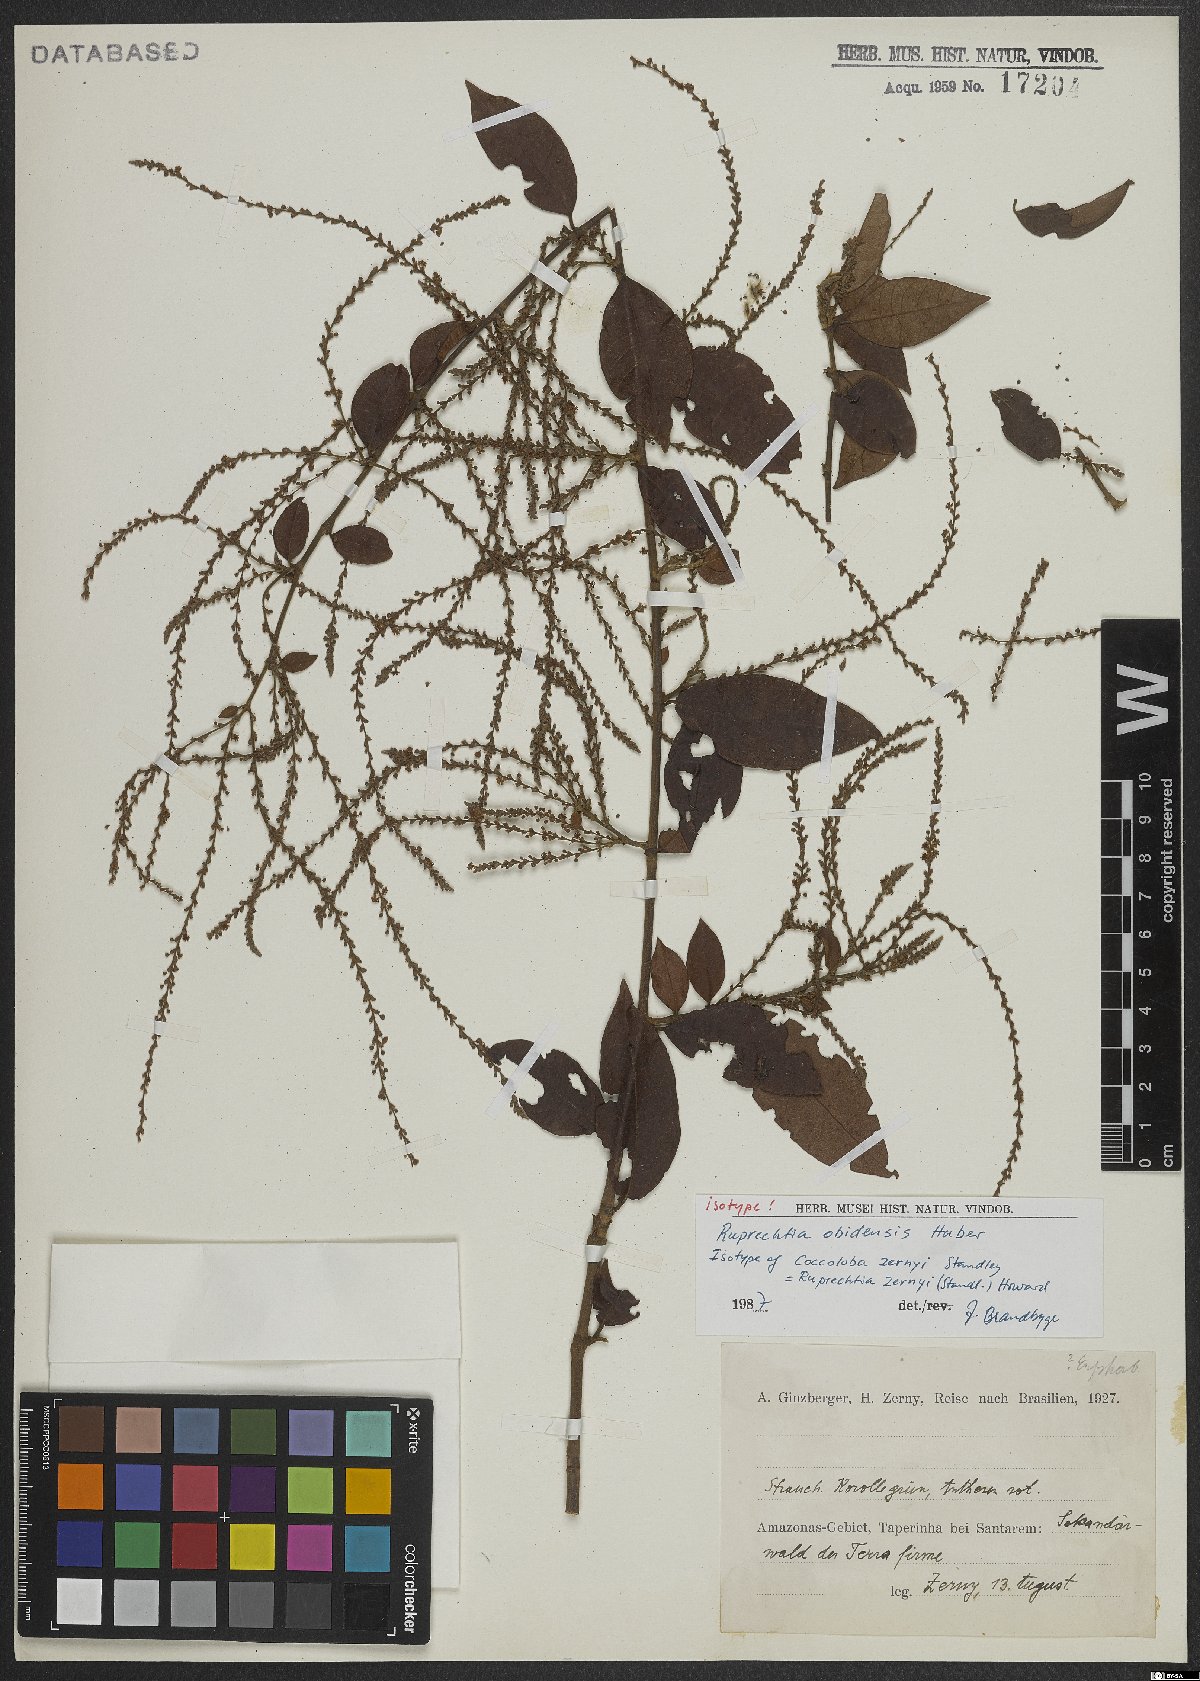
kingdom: Plantae
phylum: Tracheophyta
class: Magnoliopsida
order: Caryophyllales
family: Polygonaceae
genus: Magoniella
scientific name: Magoniella obidensis
